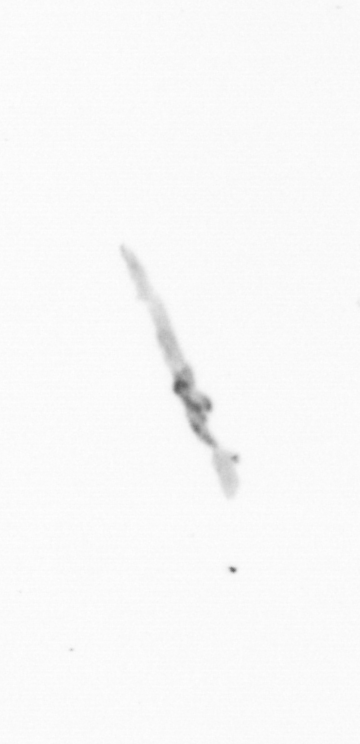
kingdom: Chromista
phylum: Ochrophyta
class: Bacillariophyceae
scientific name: Bacillariophyceae
